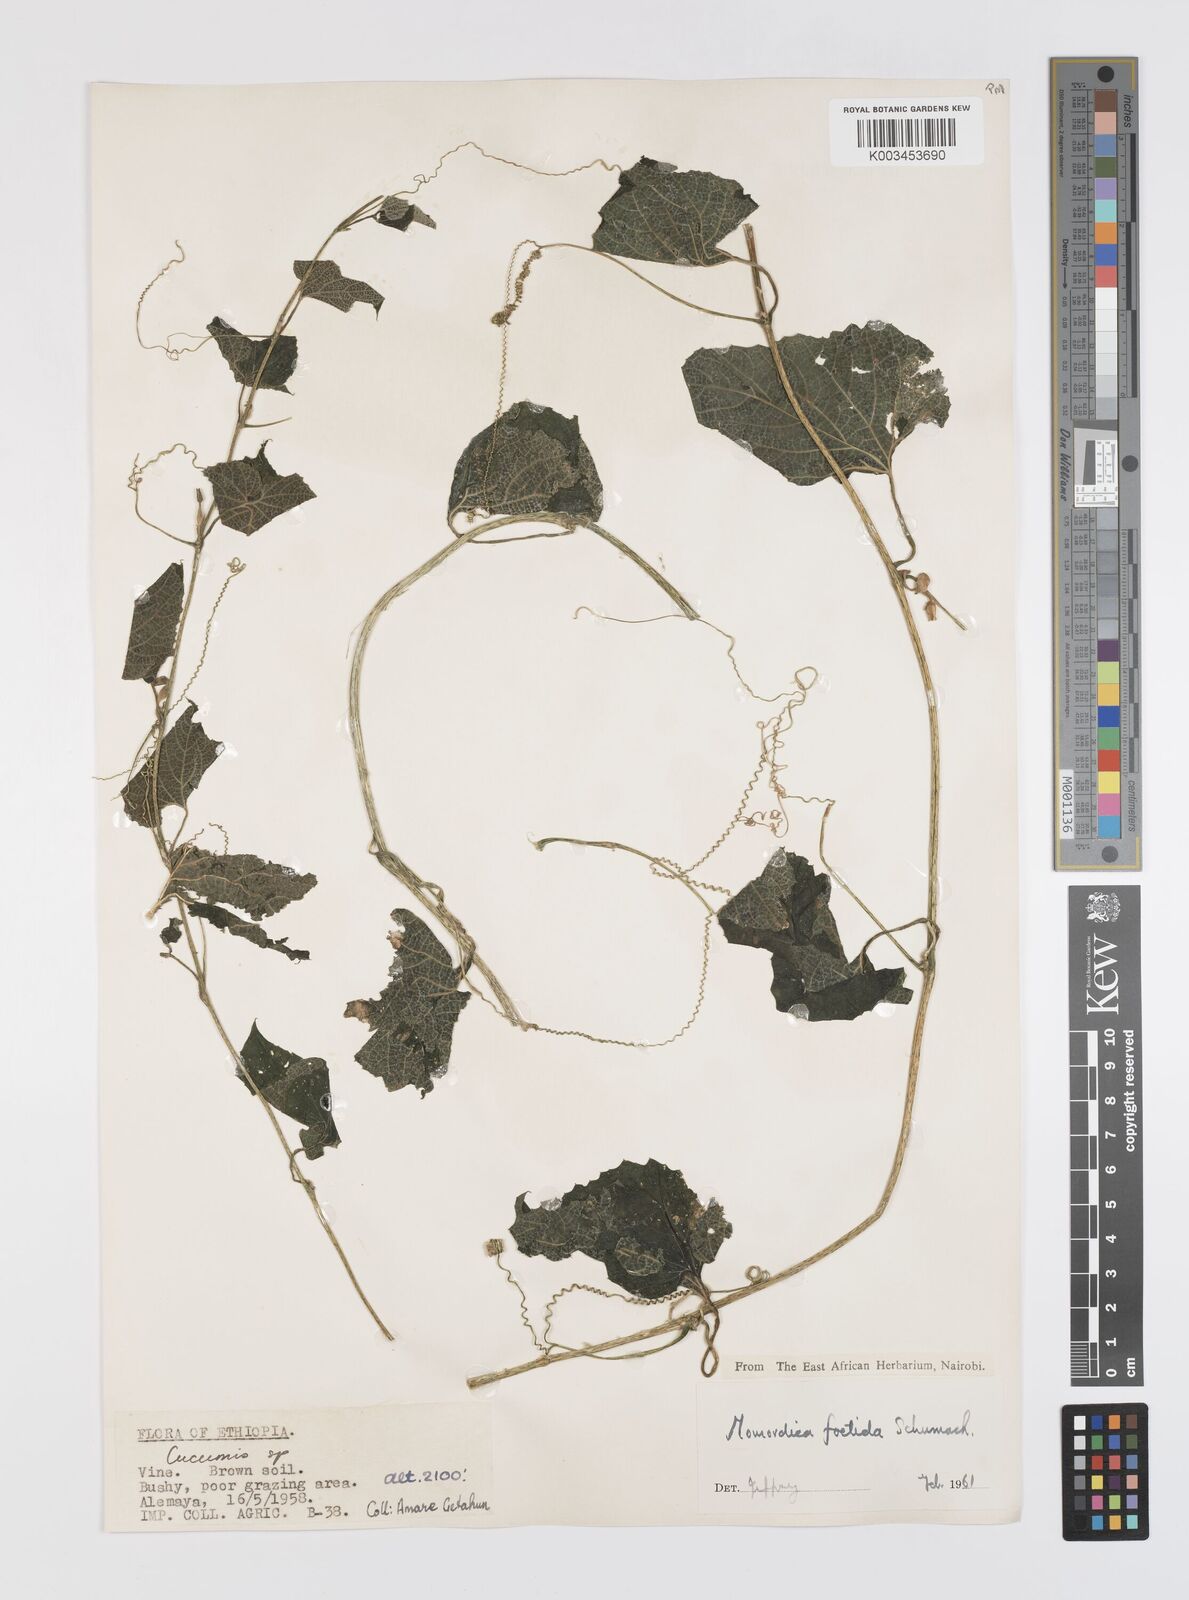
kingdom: Plantae
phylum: Tracheophyta
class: Magnoliopsida
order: Cucurbitales
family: Cucurbitaceae
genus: Momordica
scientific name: Momordica foetida
